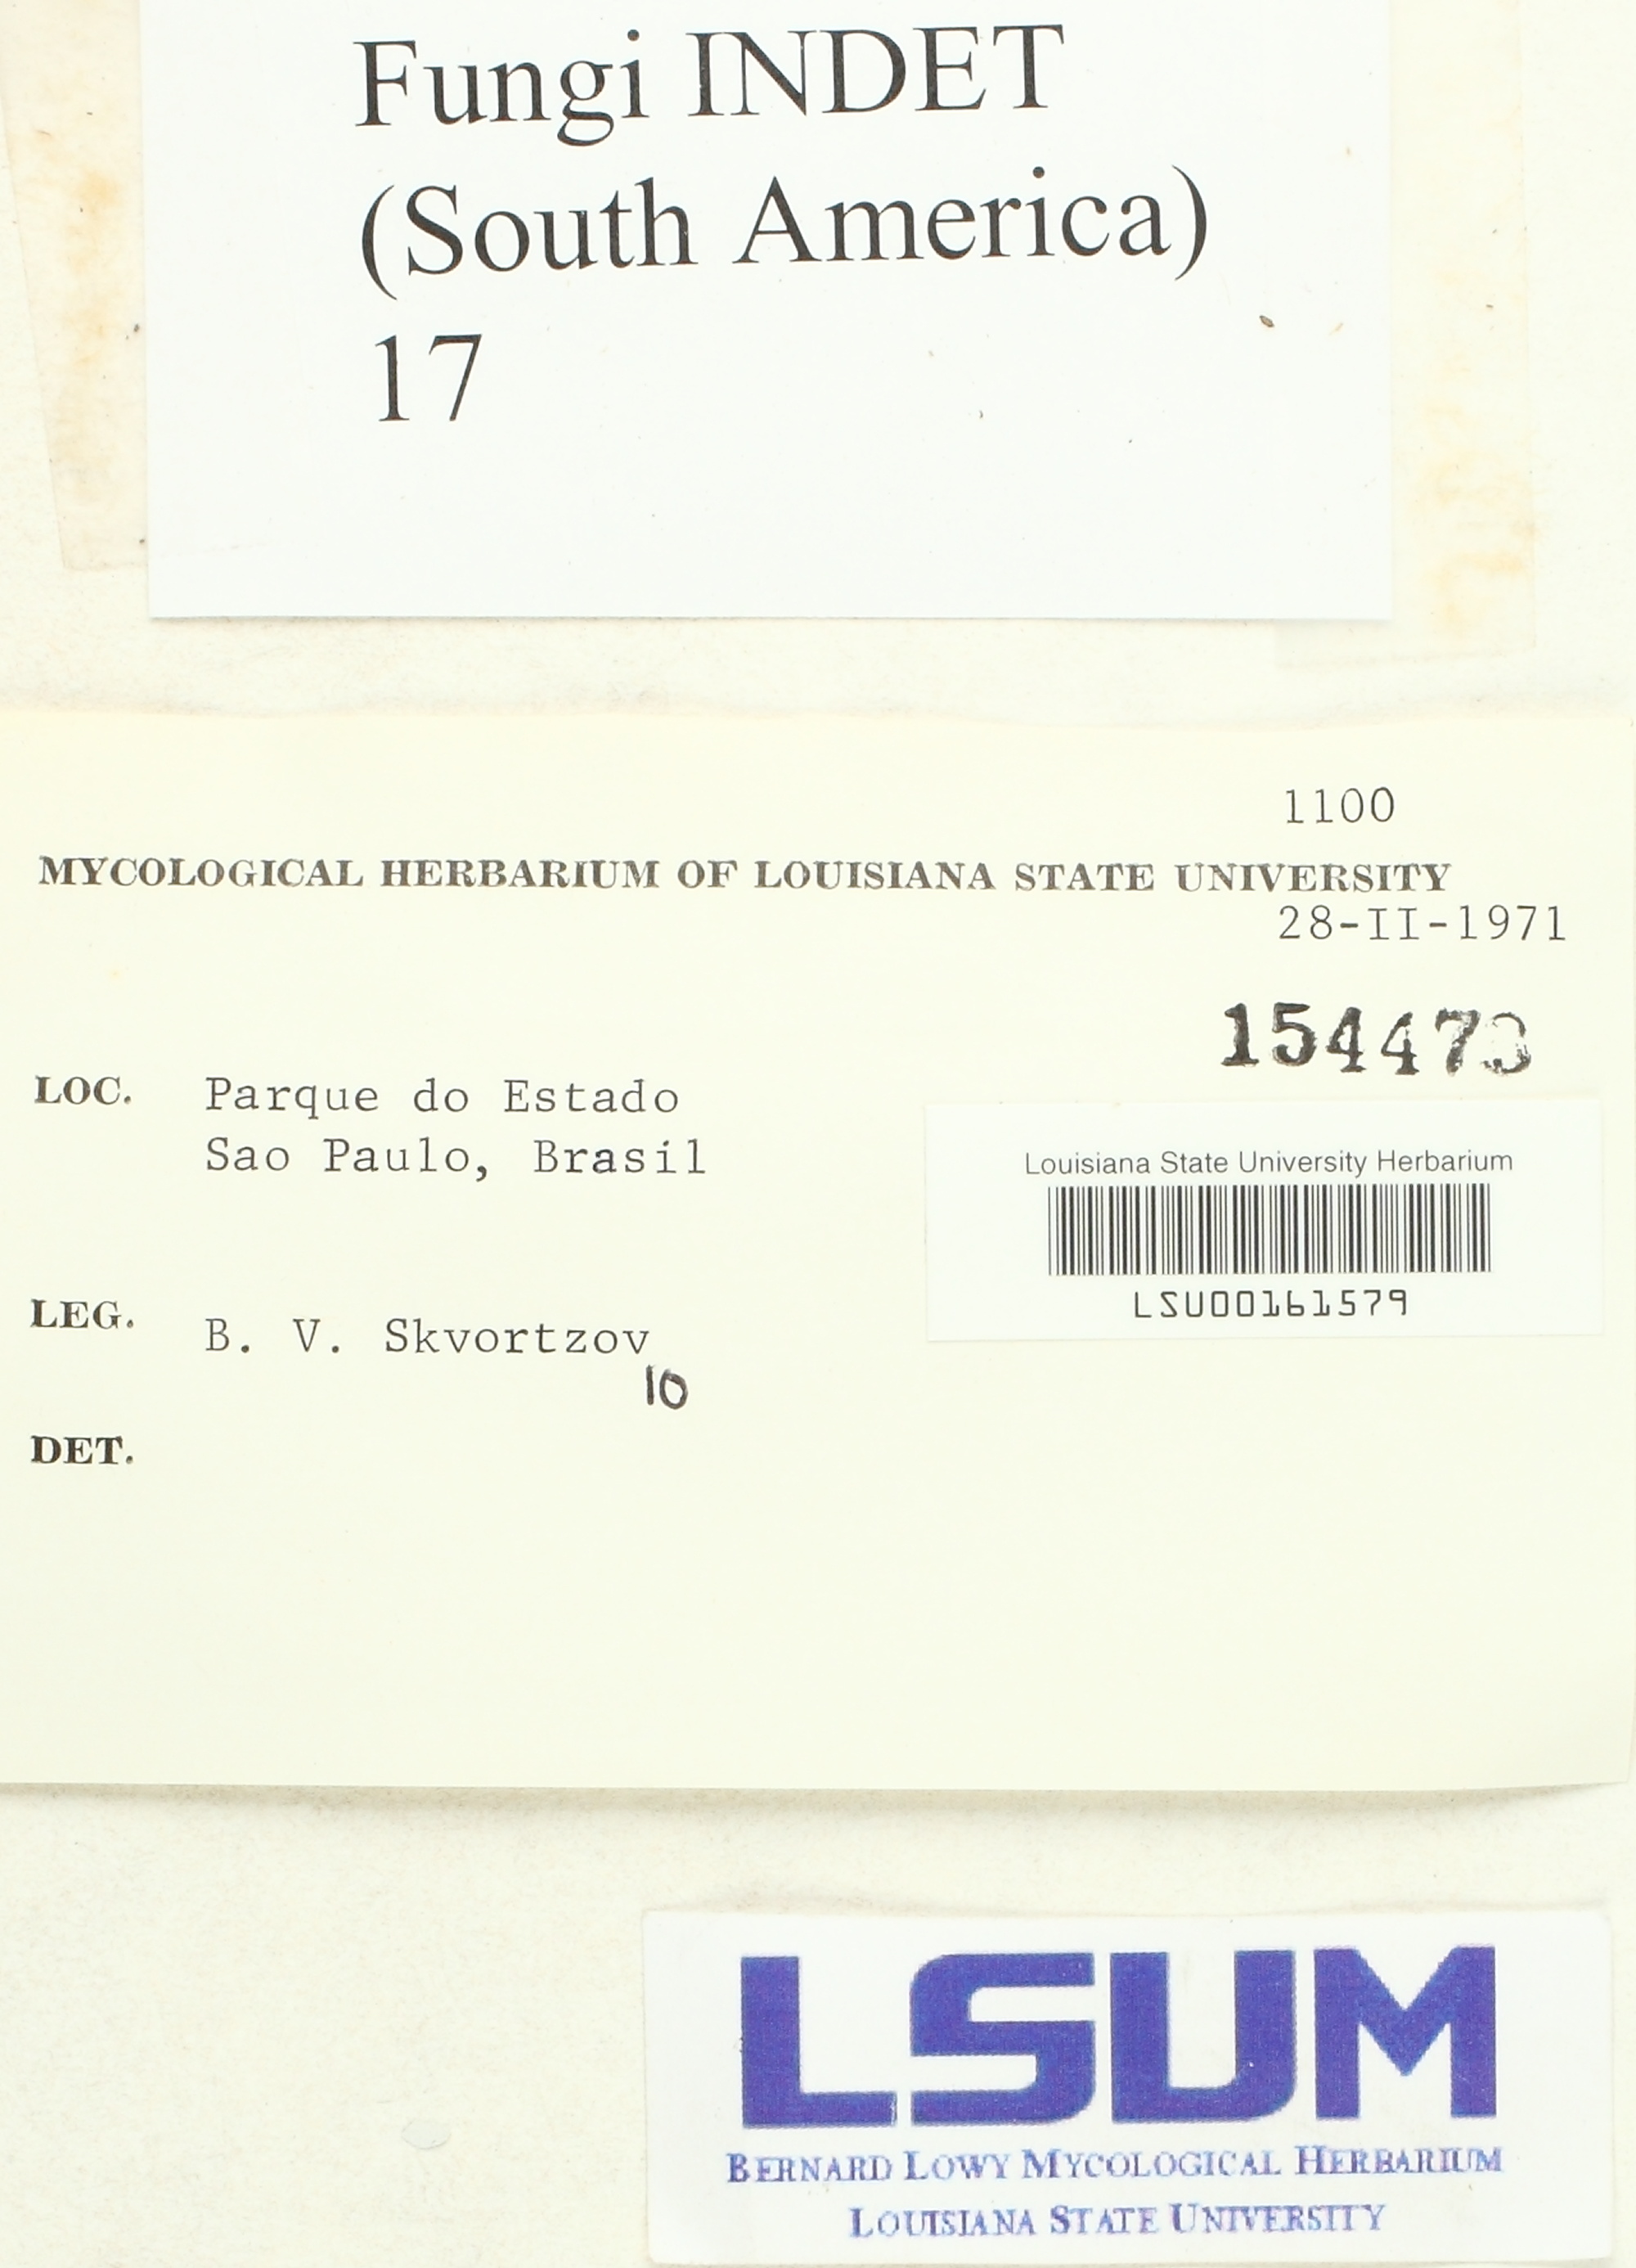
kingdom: Fungi
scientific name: Fungi
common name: Fungi
